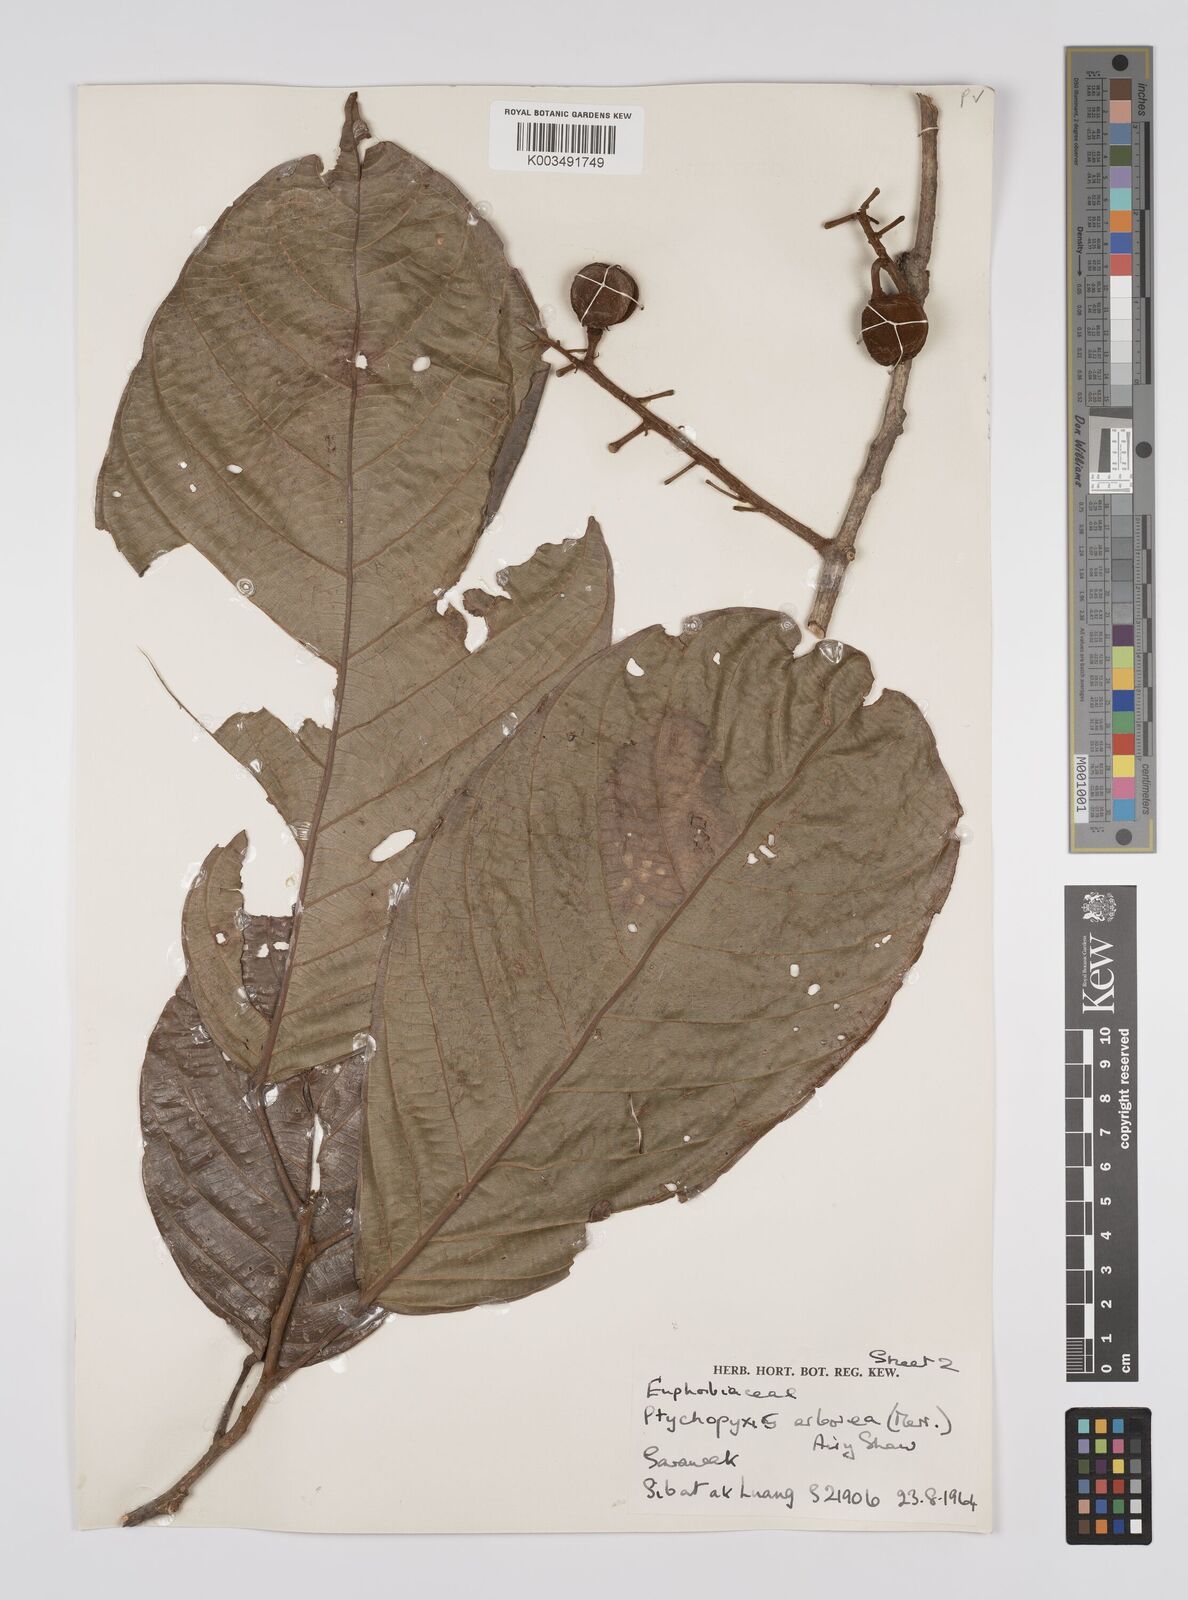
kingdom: Plantae
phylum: Tracheophyta
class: Magnoliopsida
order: Malpighiales
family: Euphorbiaceae
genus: Ptychopyxis
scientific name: Ptychopyxis arborea
